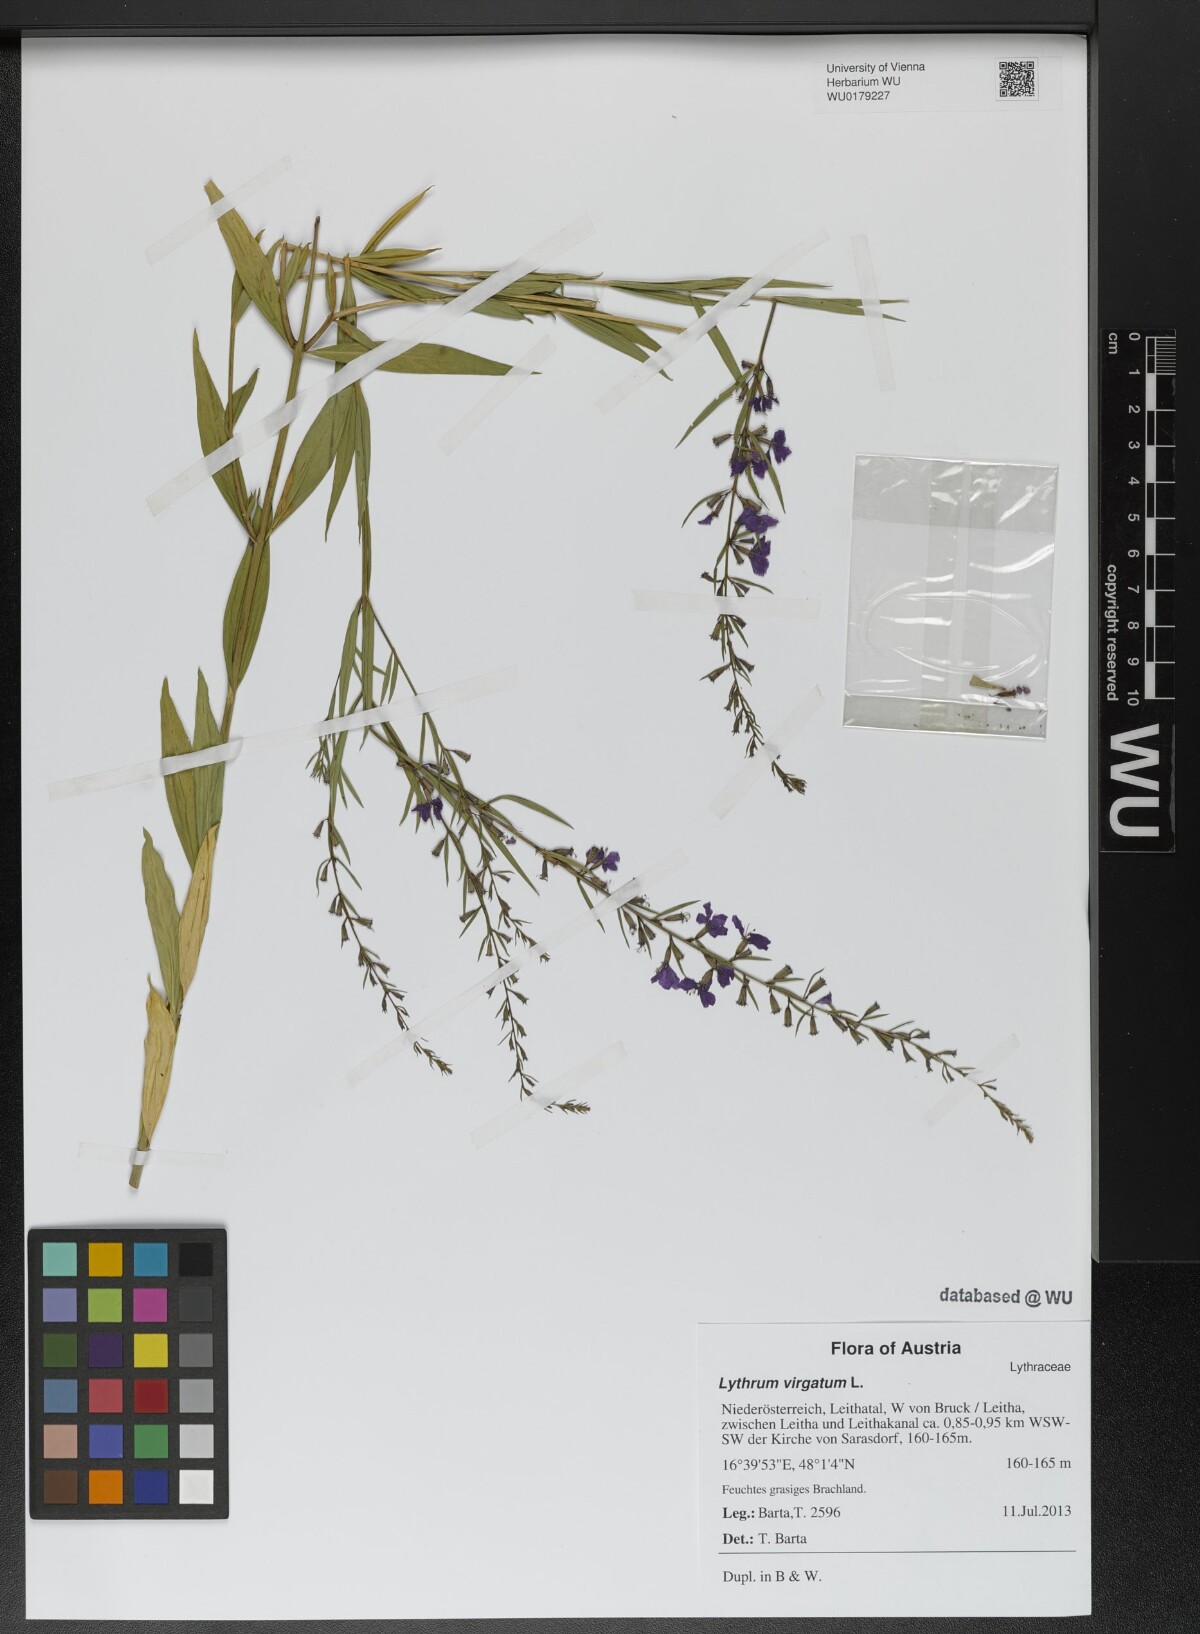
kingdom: Plantae
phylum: Tracheophyta
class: Magnoliopsida
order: Myrtales
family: Lythraceae
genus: Lythrum
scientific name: Lythrum virgatum
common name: European wand loosestrife
